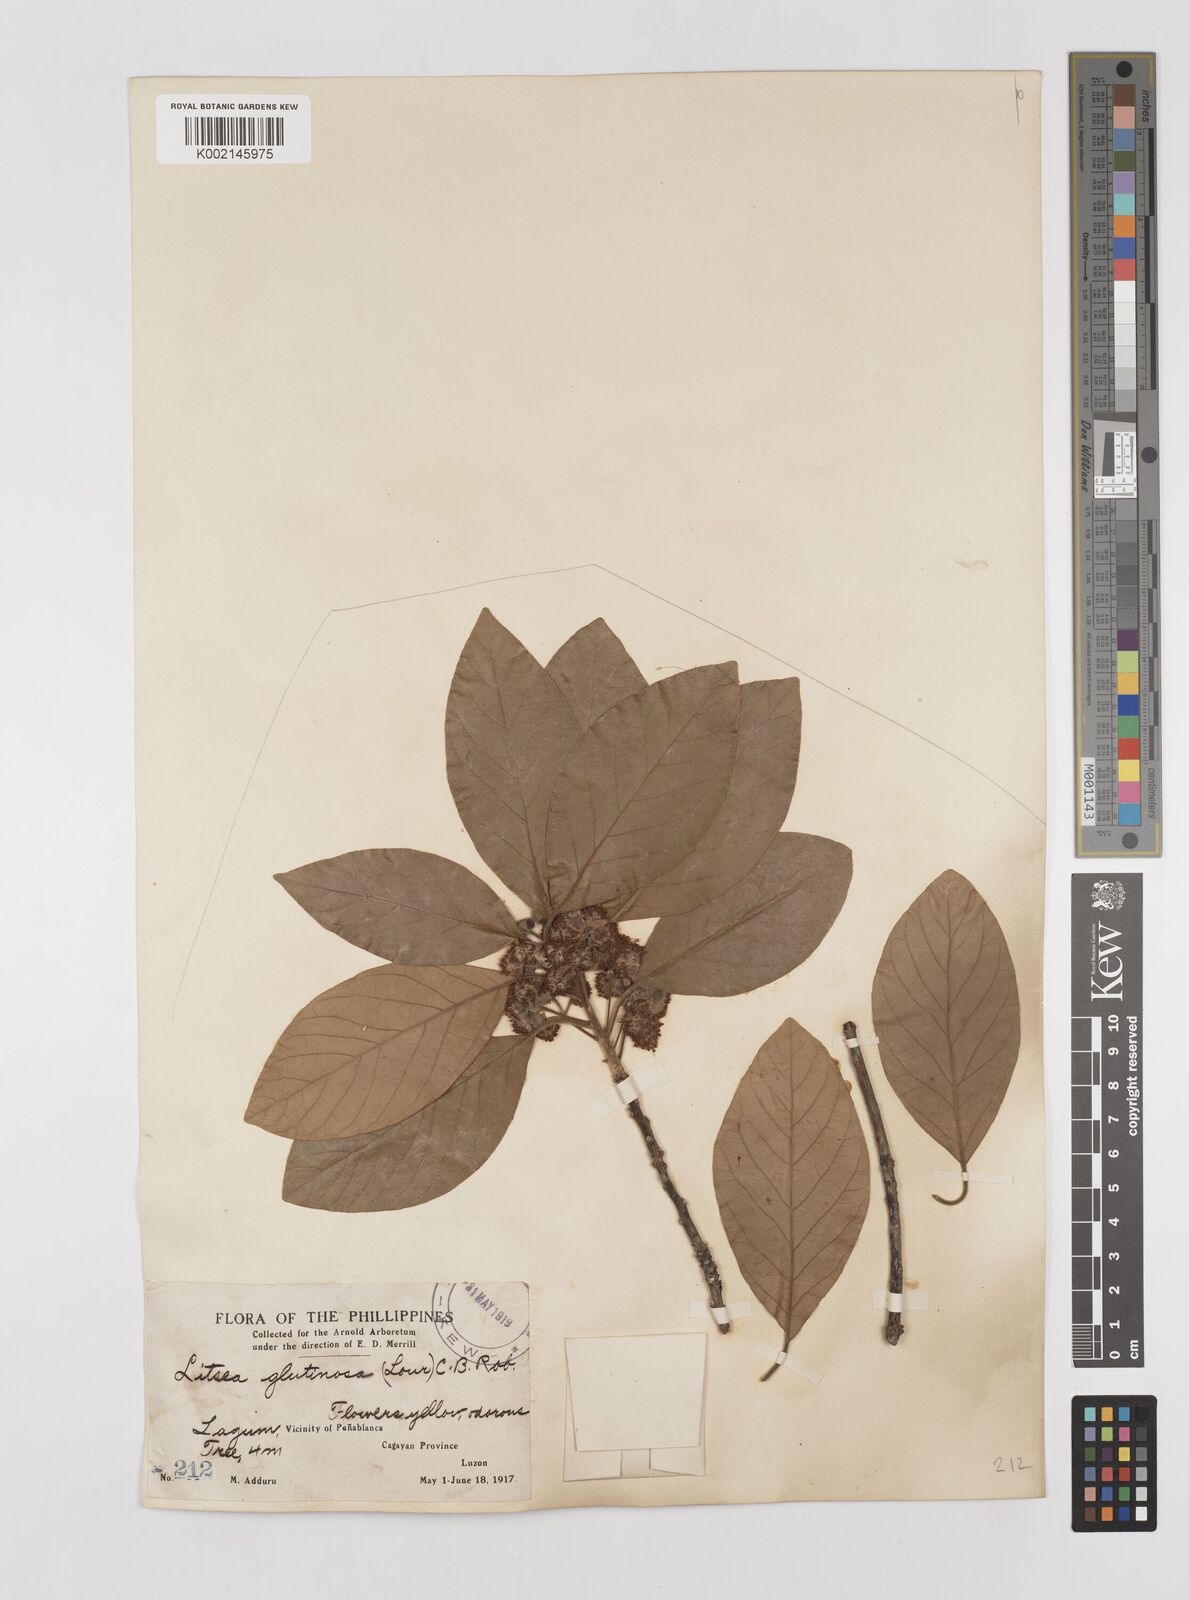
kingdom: Plantae
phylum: Tracheophyta
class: Magnoliopsida
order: Laurales
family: Lauraceae
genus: Litsea
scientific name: Litsea glutinosa
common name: Indian-laurel
